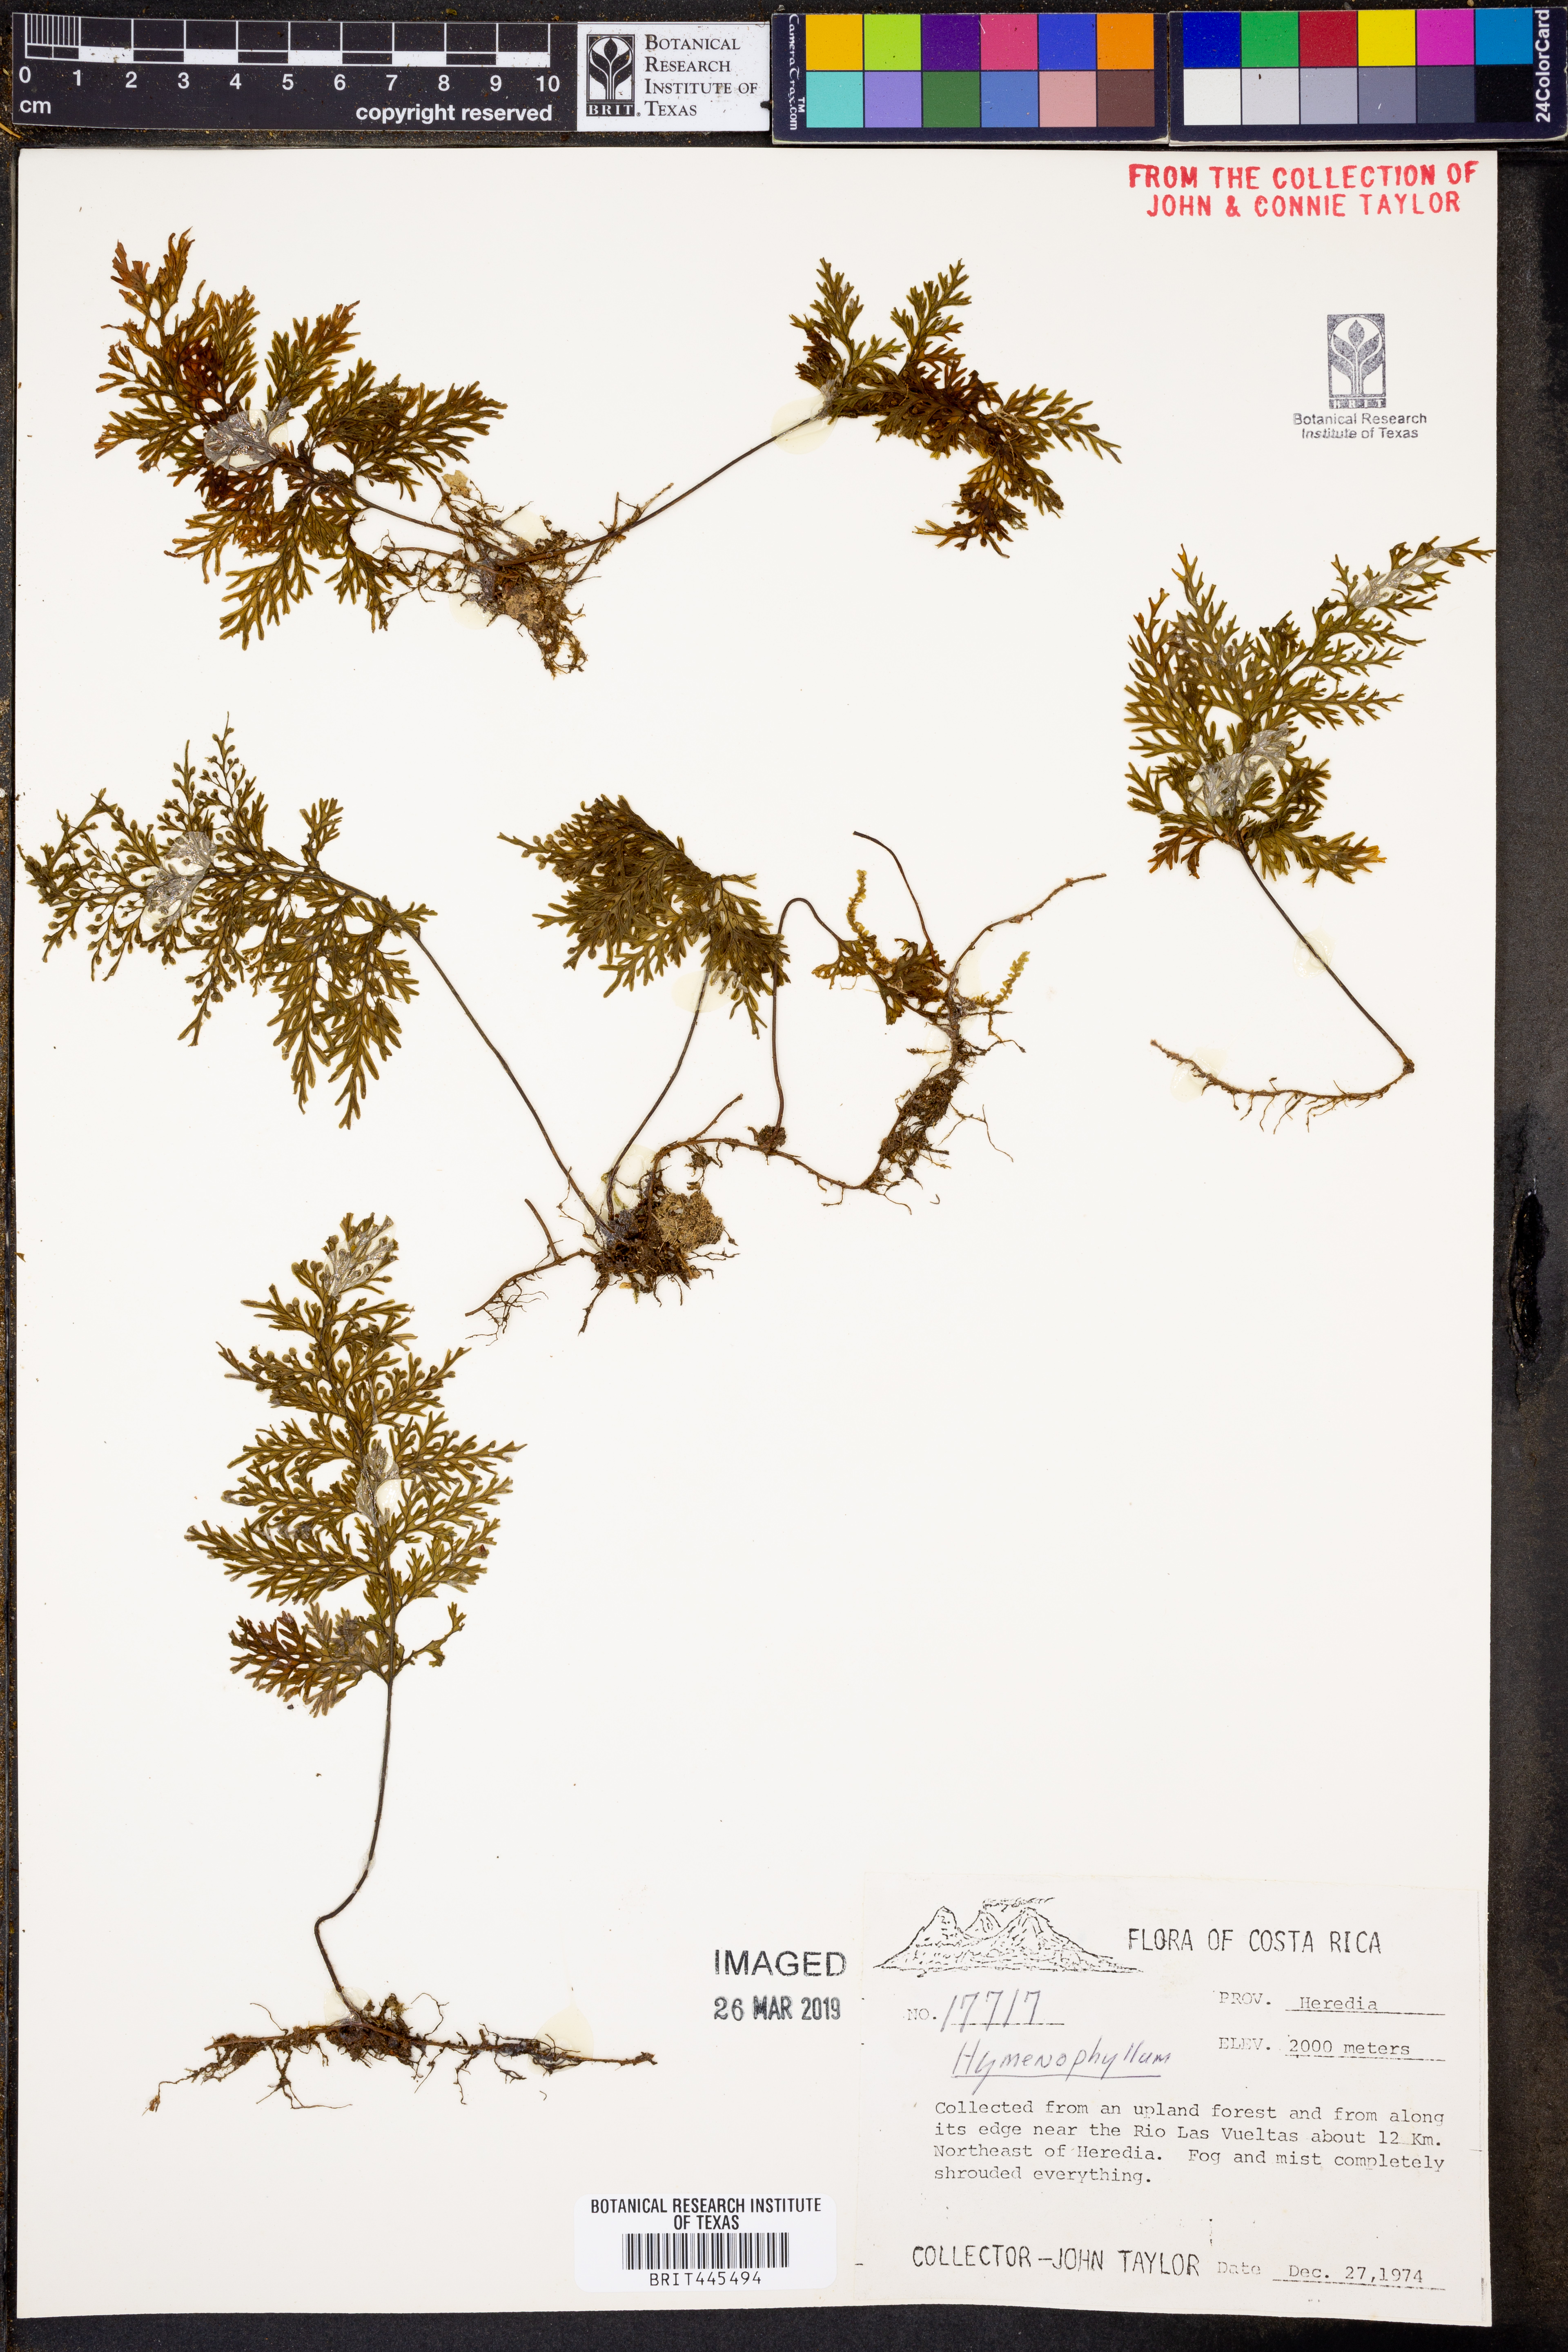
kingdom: Plantae
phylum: Tracheophyta
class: Polypodiopsida
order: Hymenophyllales
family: Hymenophyllaceae
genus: Hymenophyllum
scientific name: Hymenophyllum
